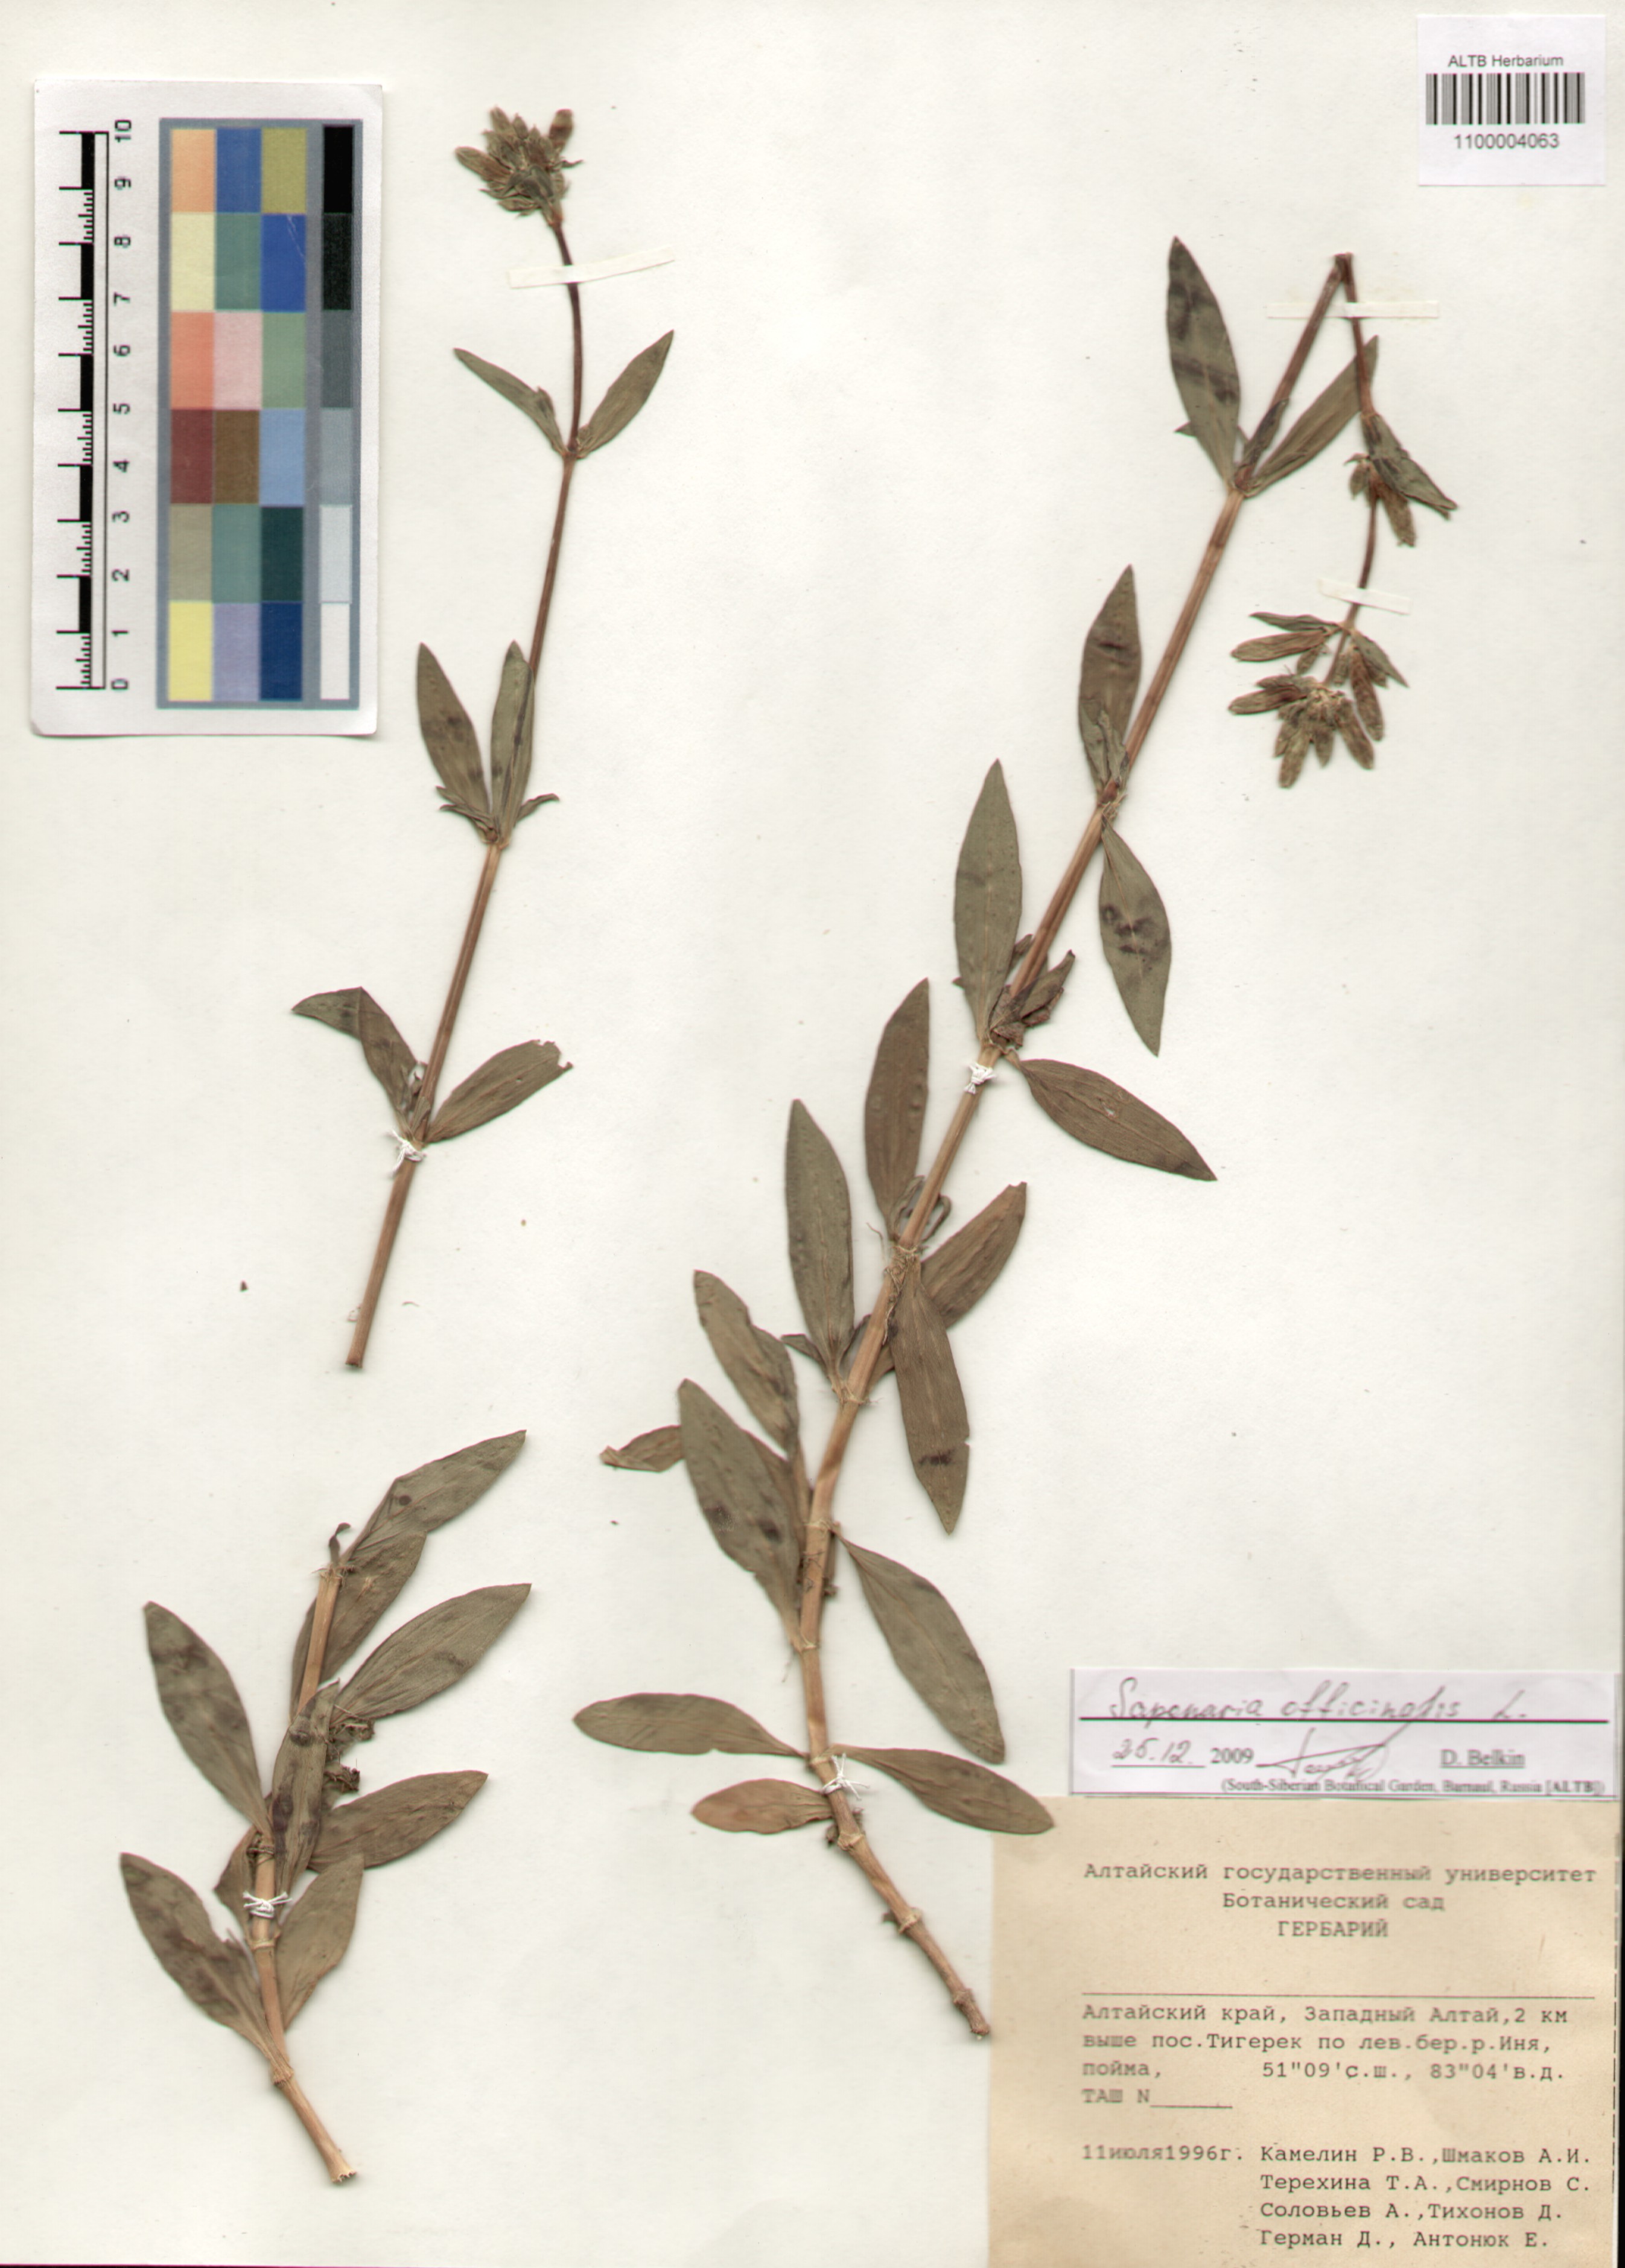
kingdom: Plantae
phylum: Tracheophyta
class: Magnoliopsida
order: Caryophyllales
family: Caryophyllaceae
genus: Saponaria
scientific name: Saponaria officinalis
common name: Soapwort
